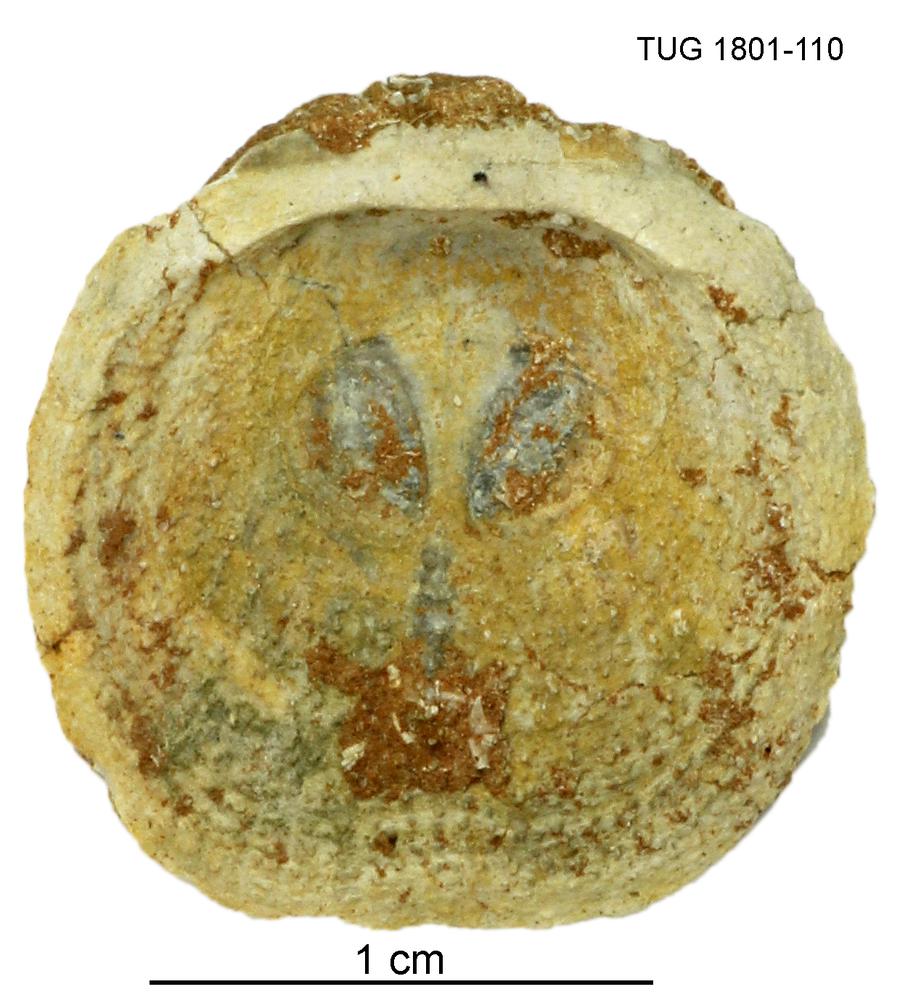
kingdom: Animalia
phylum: Brachiopoda
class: Craniata
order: Craniida
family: Craniidae
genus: Philhedra
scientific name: Philhedra
